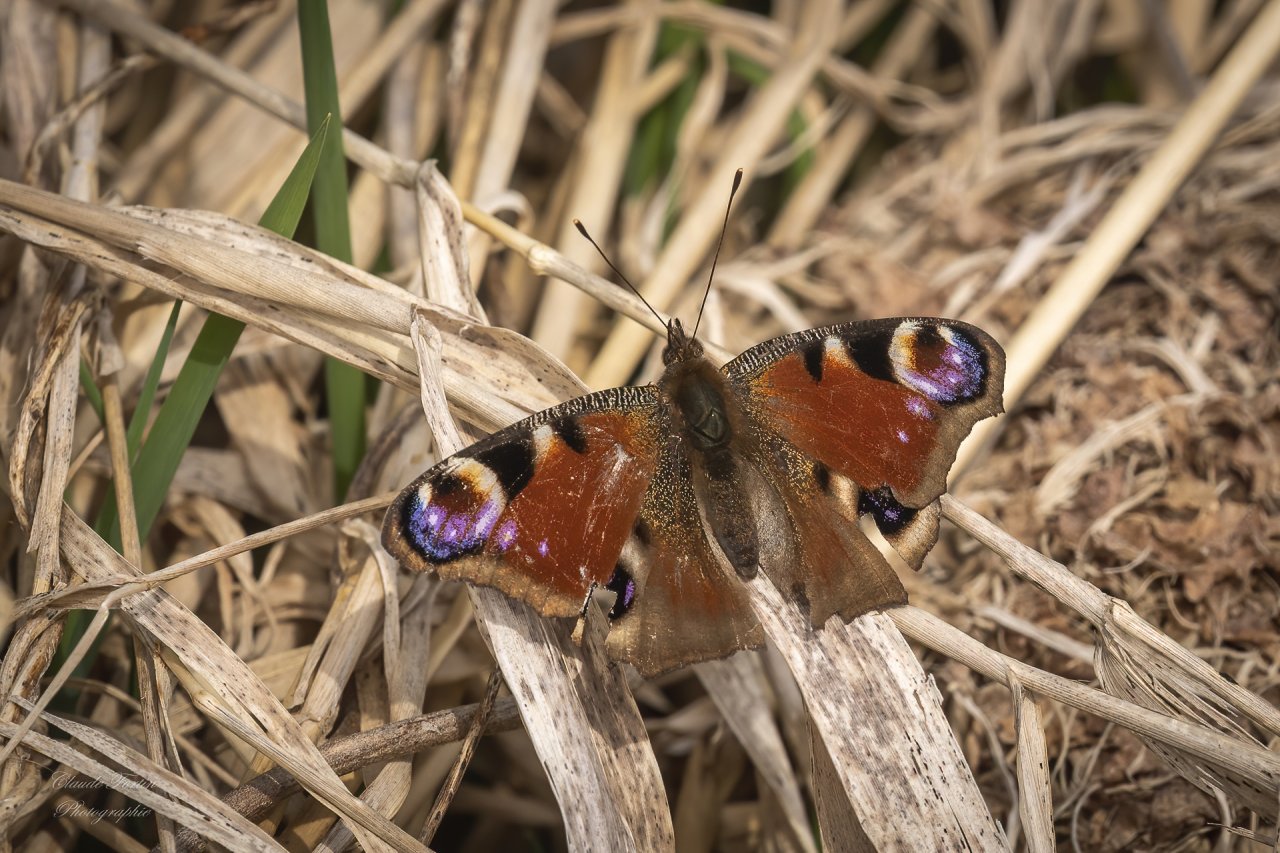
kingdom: Animalia
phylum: Arthropoda
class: Insecta
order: Lepidoptera
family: Nymphalidae
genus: Aglais
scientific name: Aglais io
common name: European Peacock
